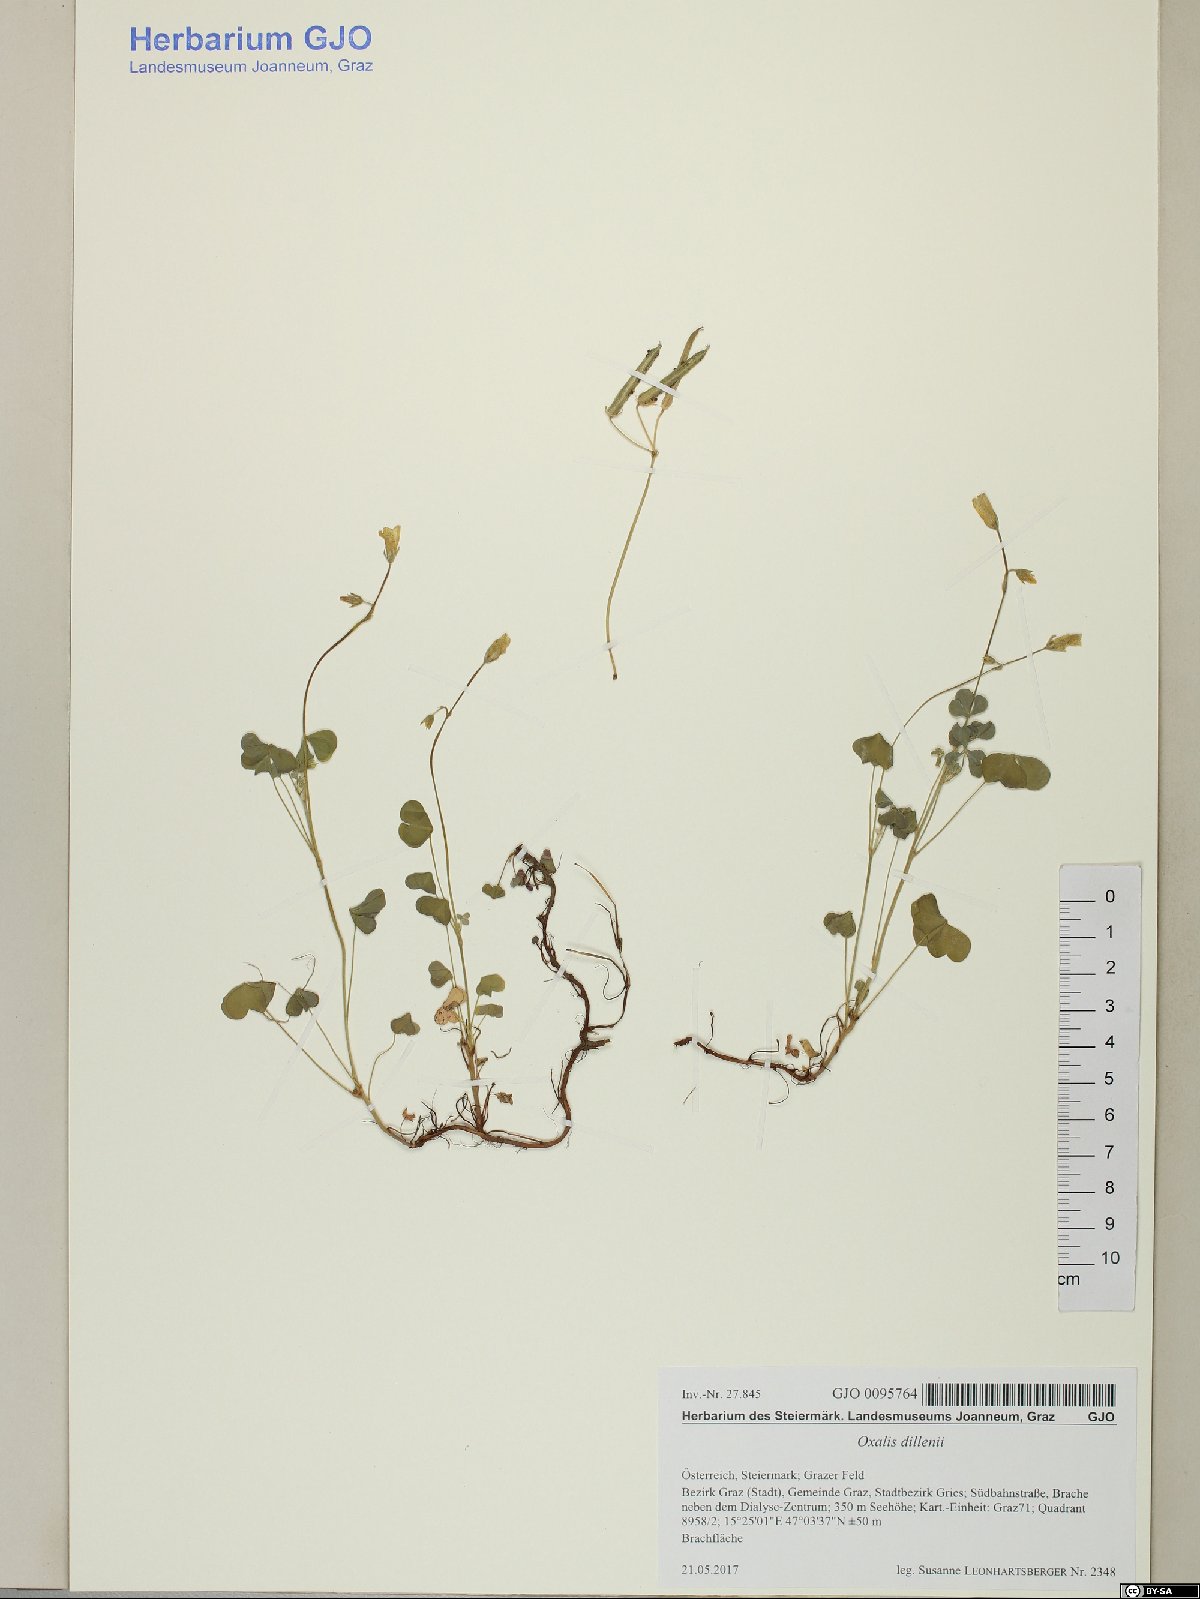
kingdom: Plantae
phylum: Tracheophyta
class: Magnoliopsida
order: Oxalidales
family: Oxalidaceae
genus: Oxalis
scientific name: Oxalis dillenii
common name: Sussex yellow-sorrel
